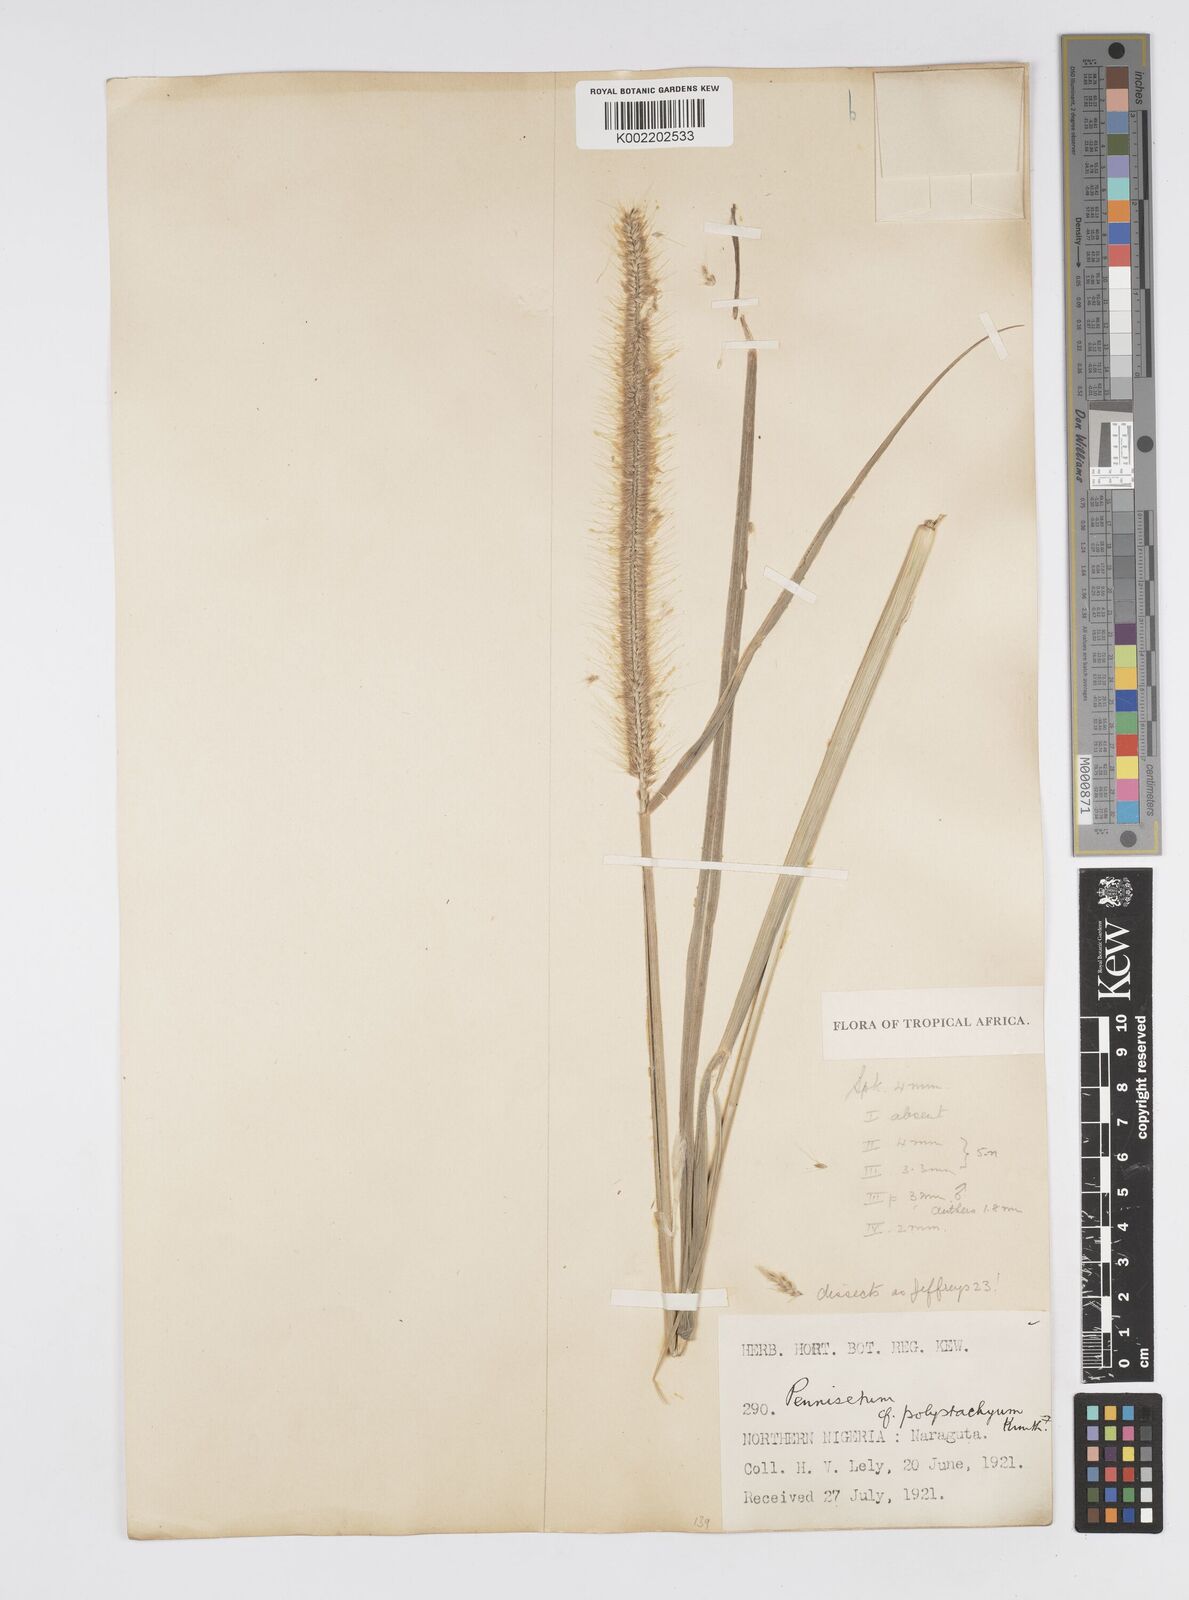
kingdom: Plantae
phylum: Tracheophyta
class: Liliopsida
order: Poales
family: Poaceae
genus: Setaria
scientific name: Setaria parviflora
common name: Knotroot bristle-grass
